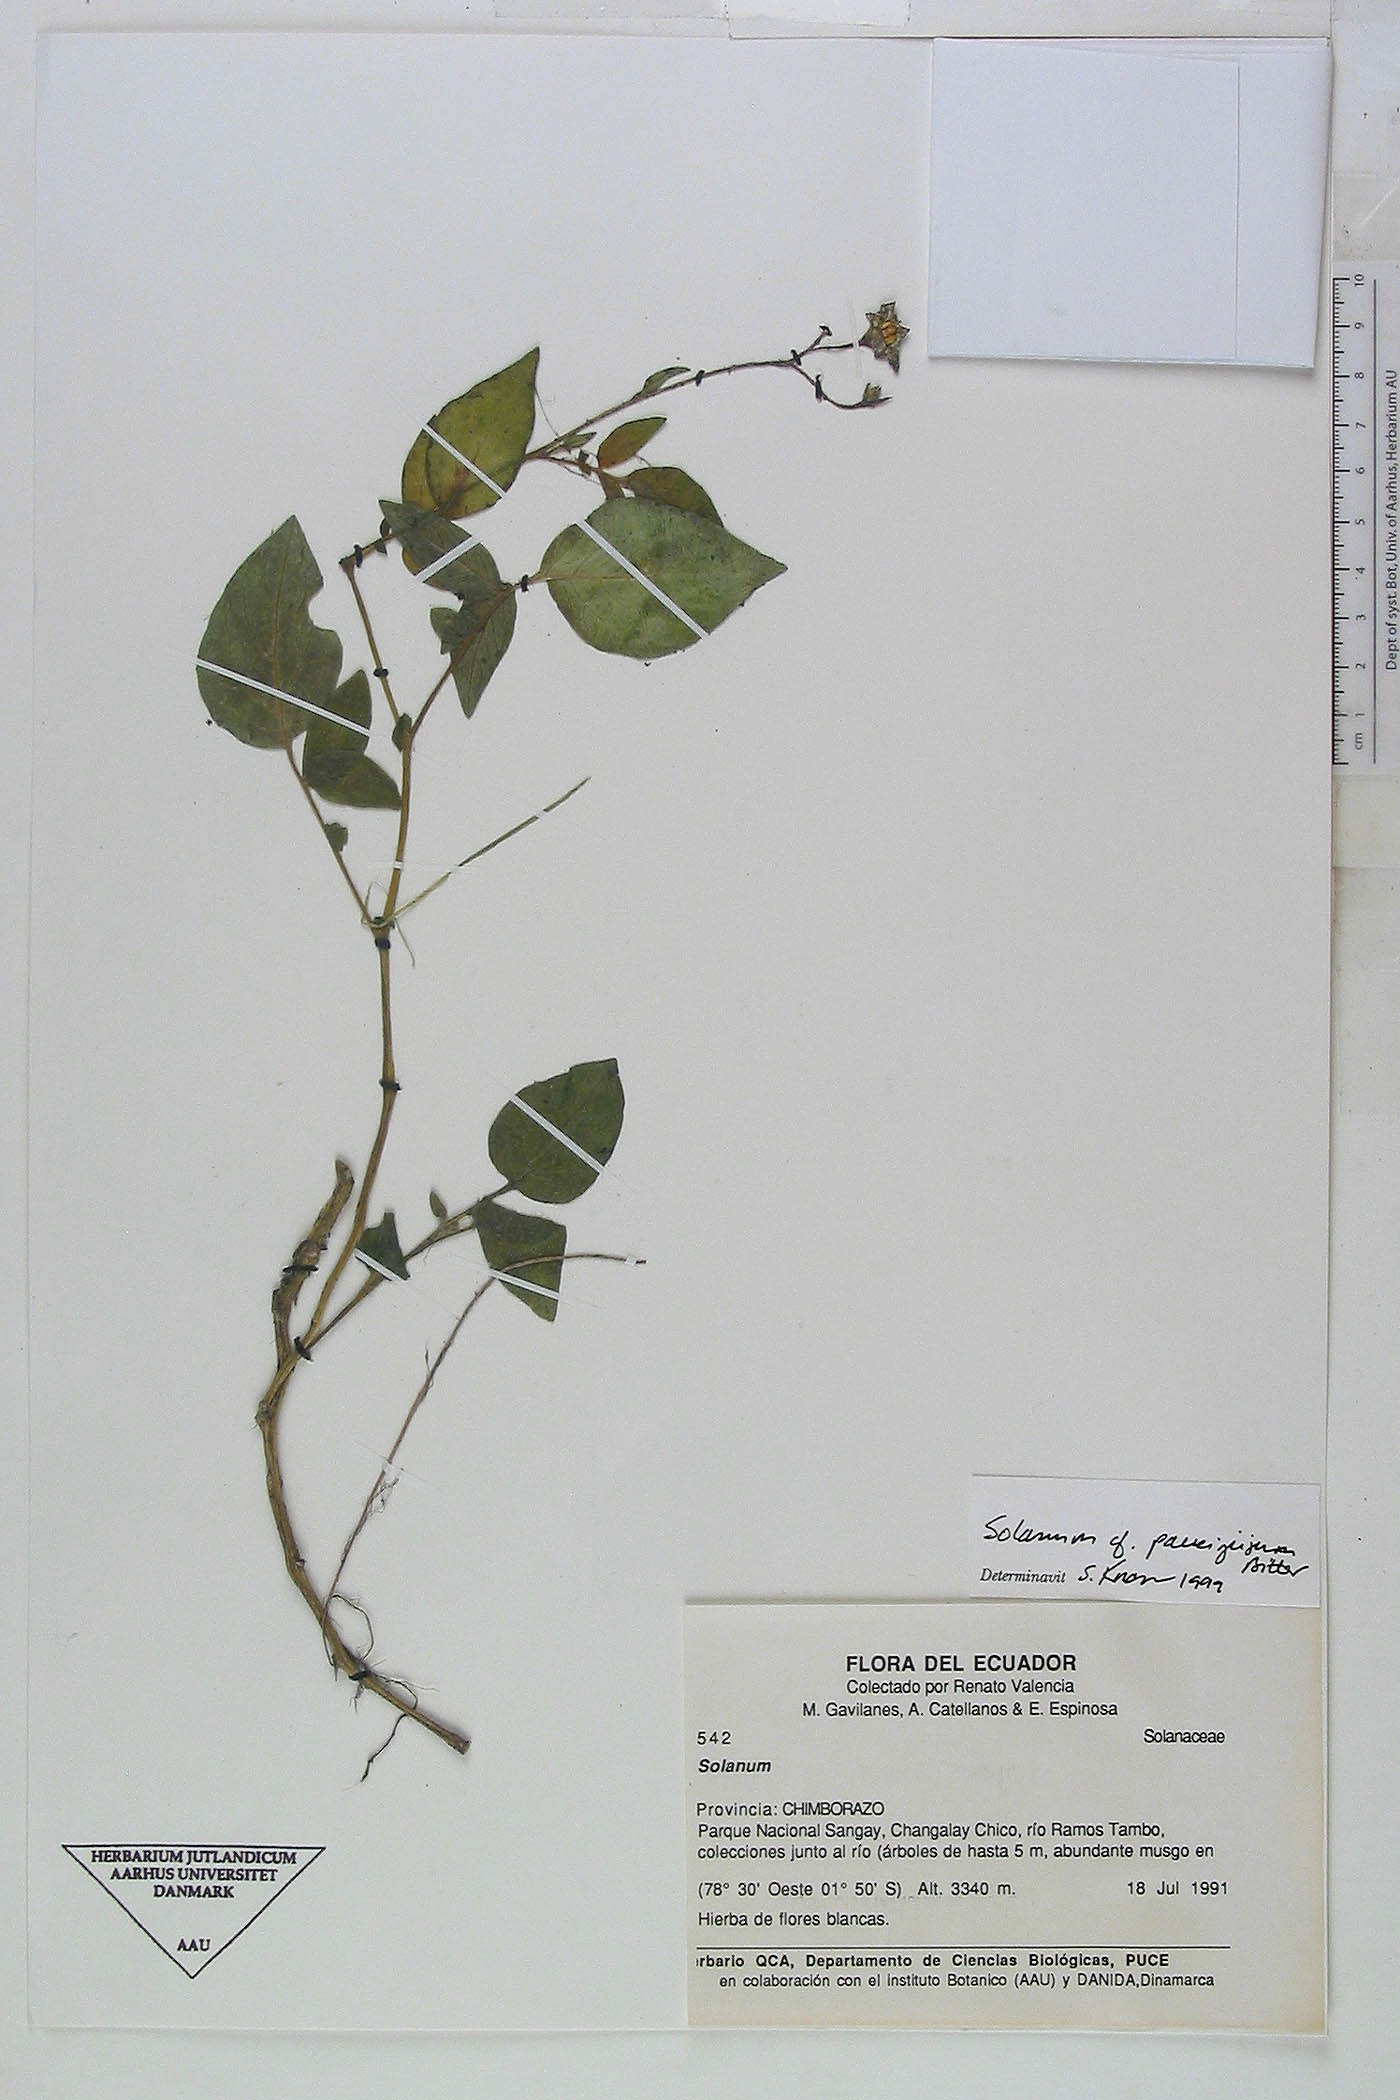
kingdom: Plantae
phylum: Tracheophyta
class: Magnoliopsida
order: Solanales
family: Solanaceae
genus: Solanum
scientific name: Solanum andreanum
